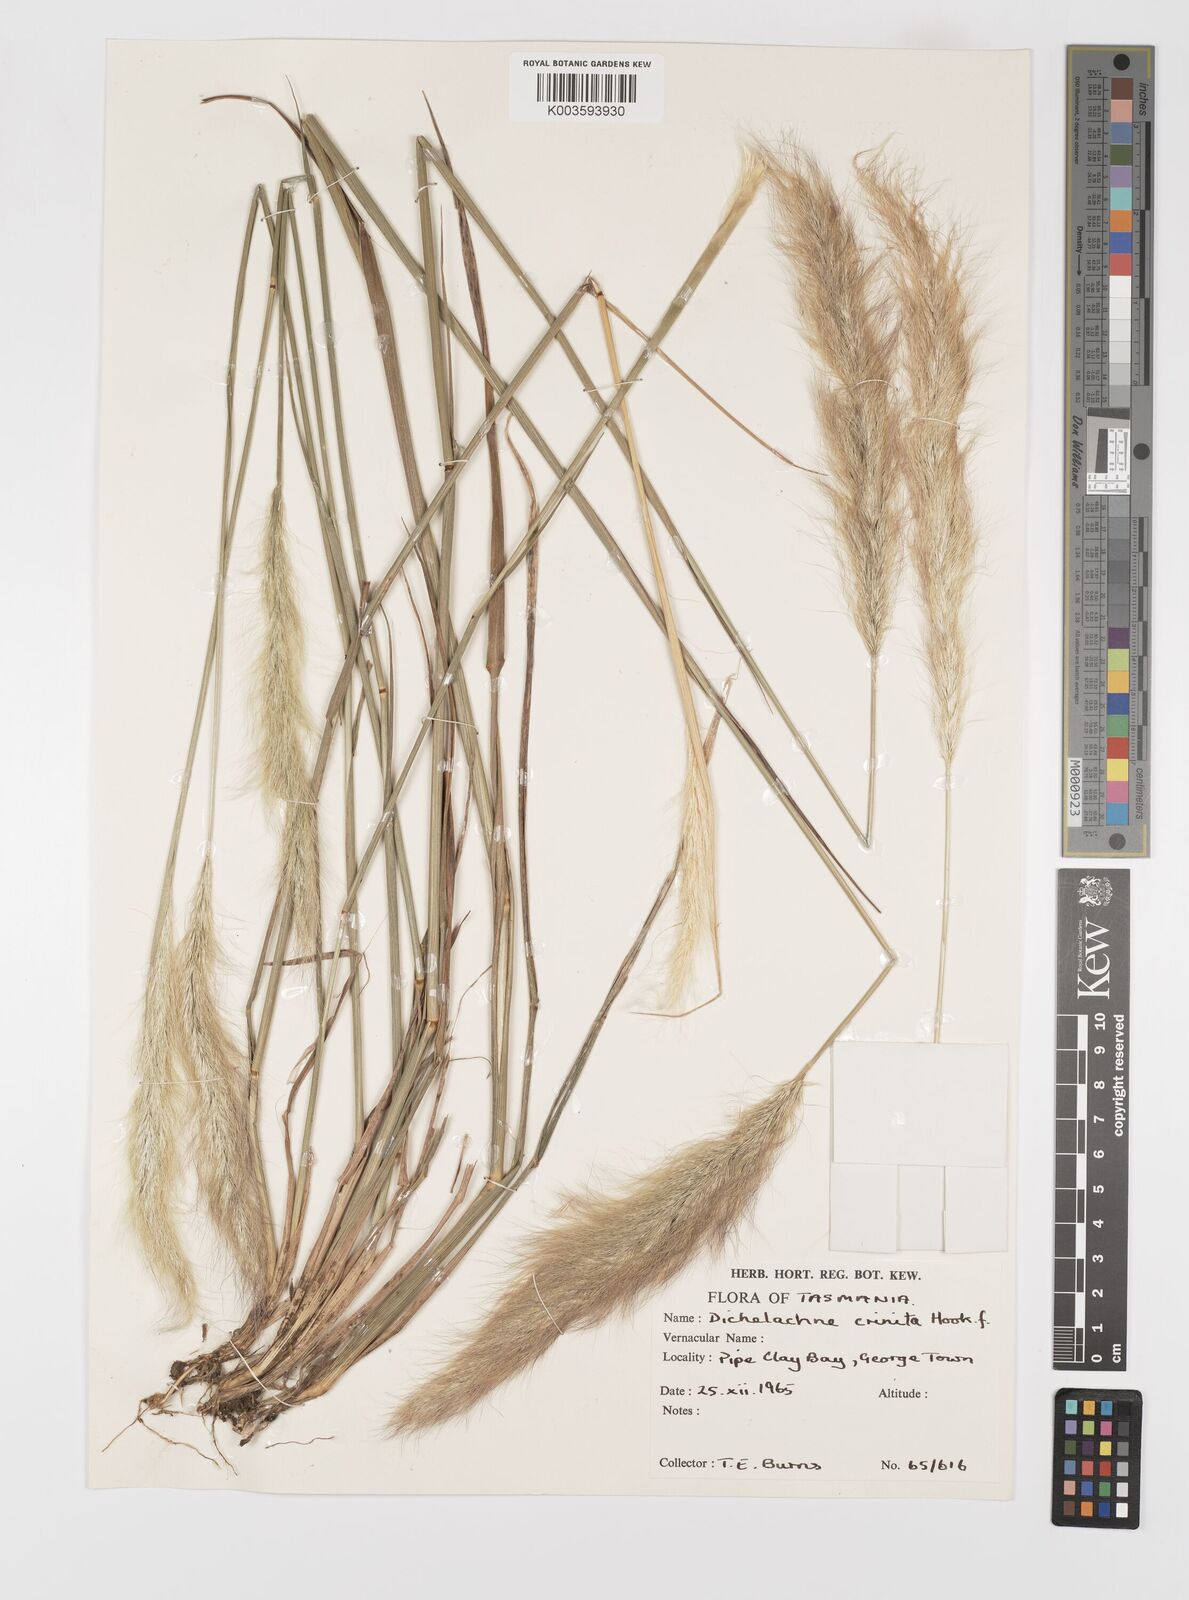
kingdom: Plantae
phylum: Tracheophyta
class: Liliopsida
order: Poales
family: Poaceae
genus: Dichelachne
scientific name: Dichelachne crinita
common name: Clovenfoot plumegrass
